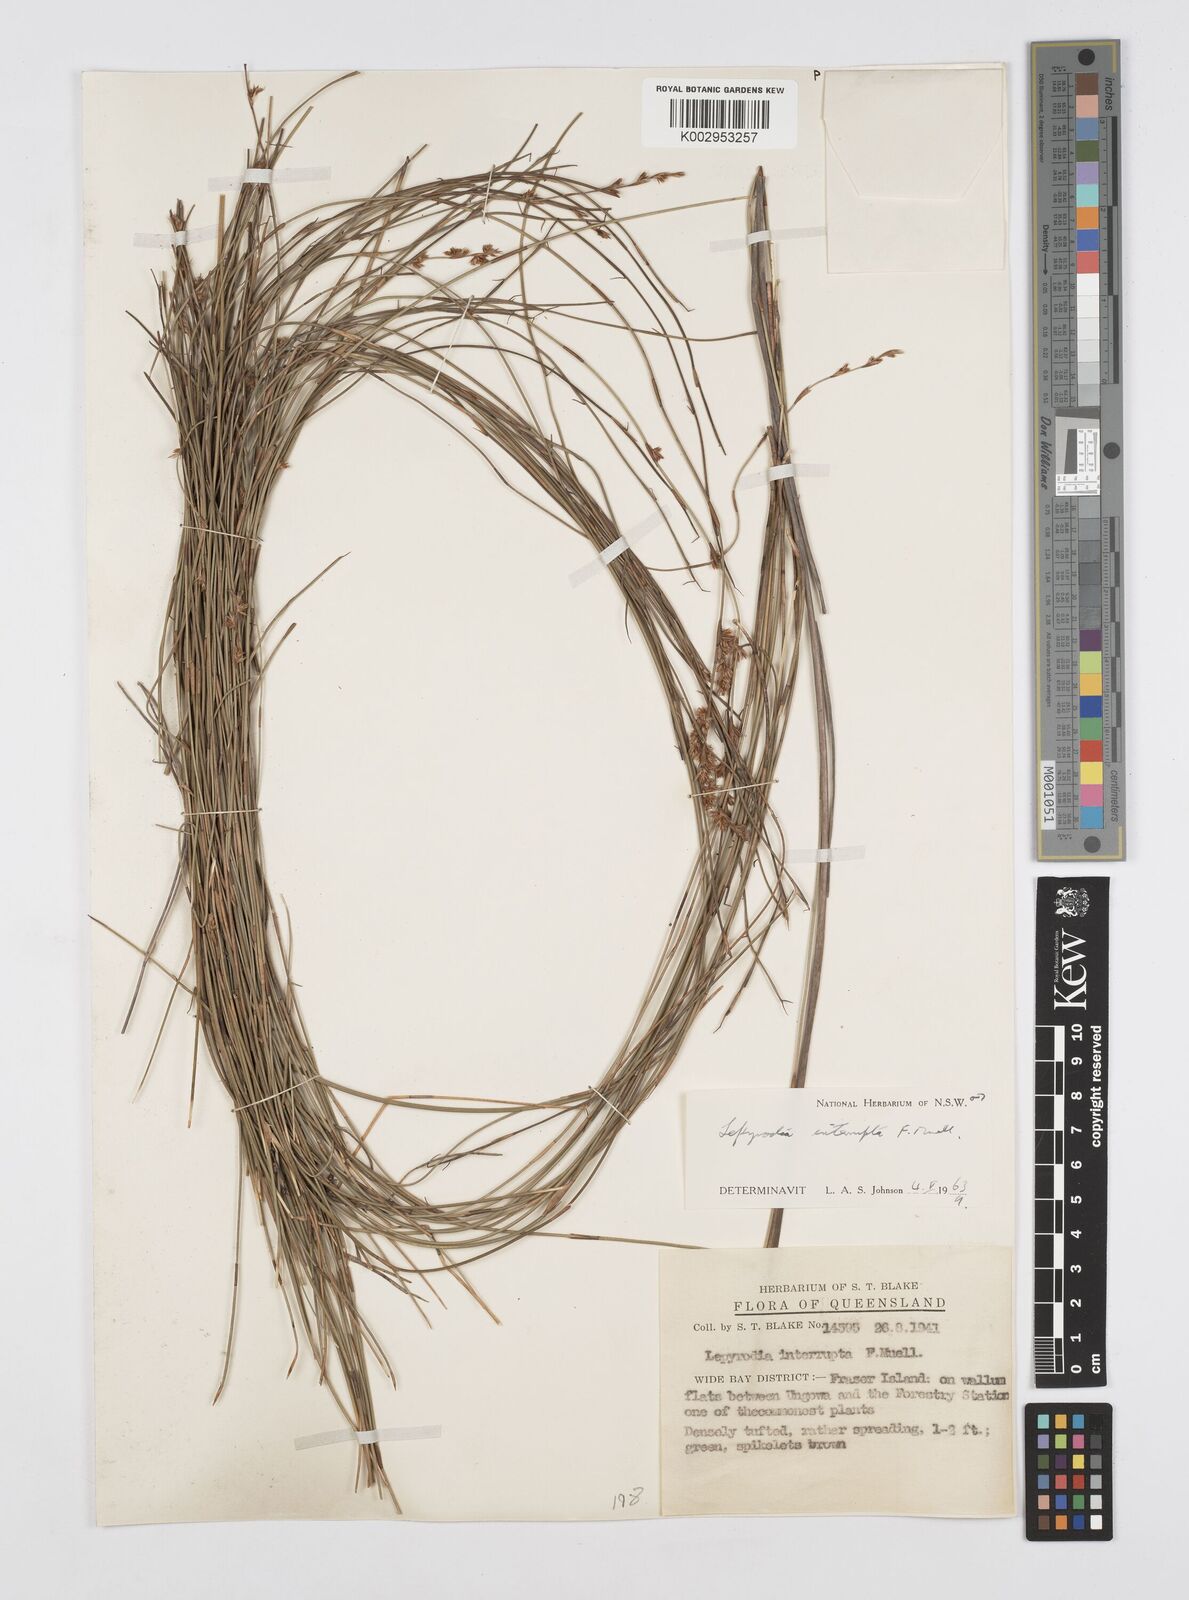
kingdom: Plantae
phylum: Tracheophyta
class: Liliopsida
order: Poales
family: Restionaceae
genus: Sporadanthus
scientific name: Sporadanthus interruptus
